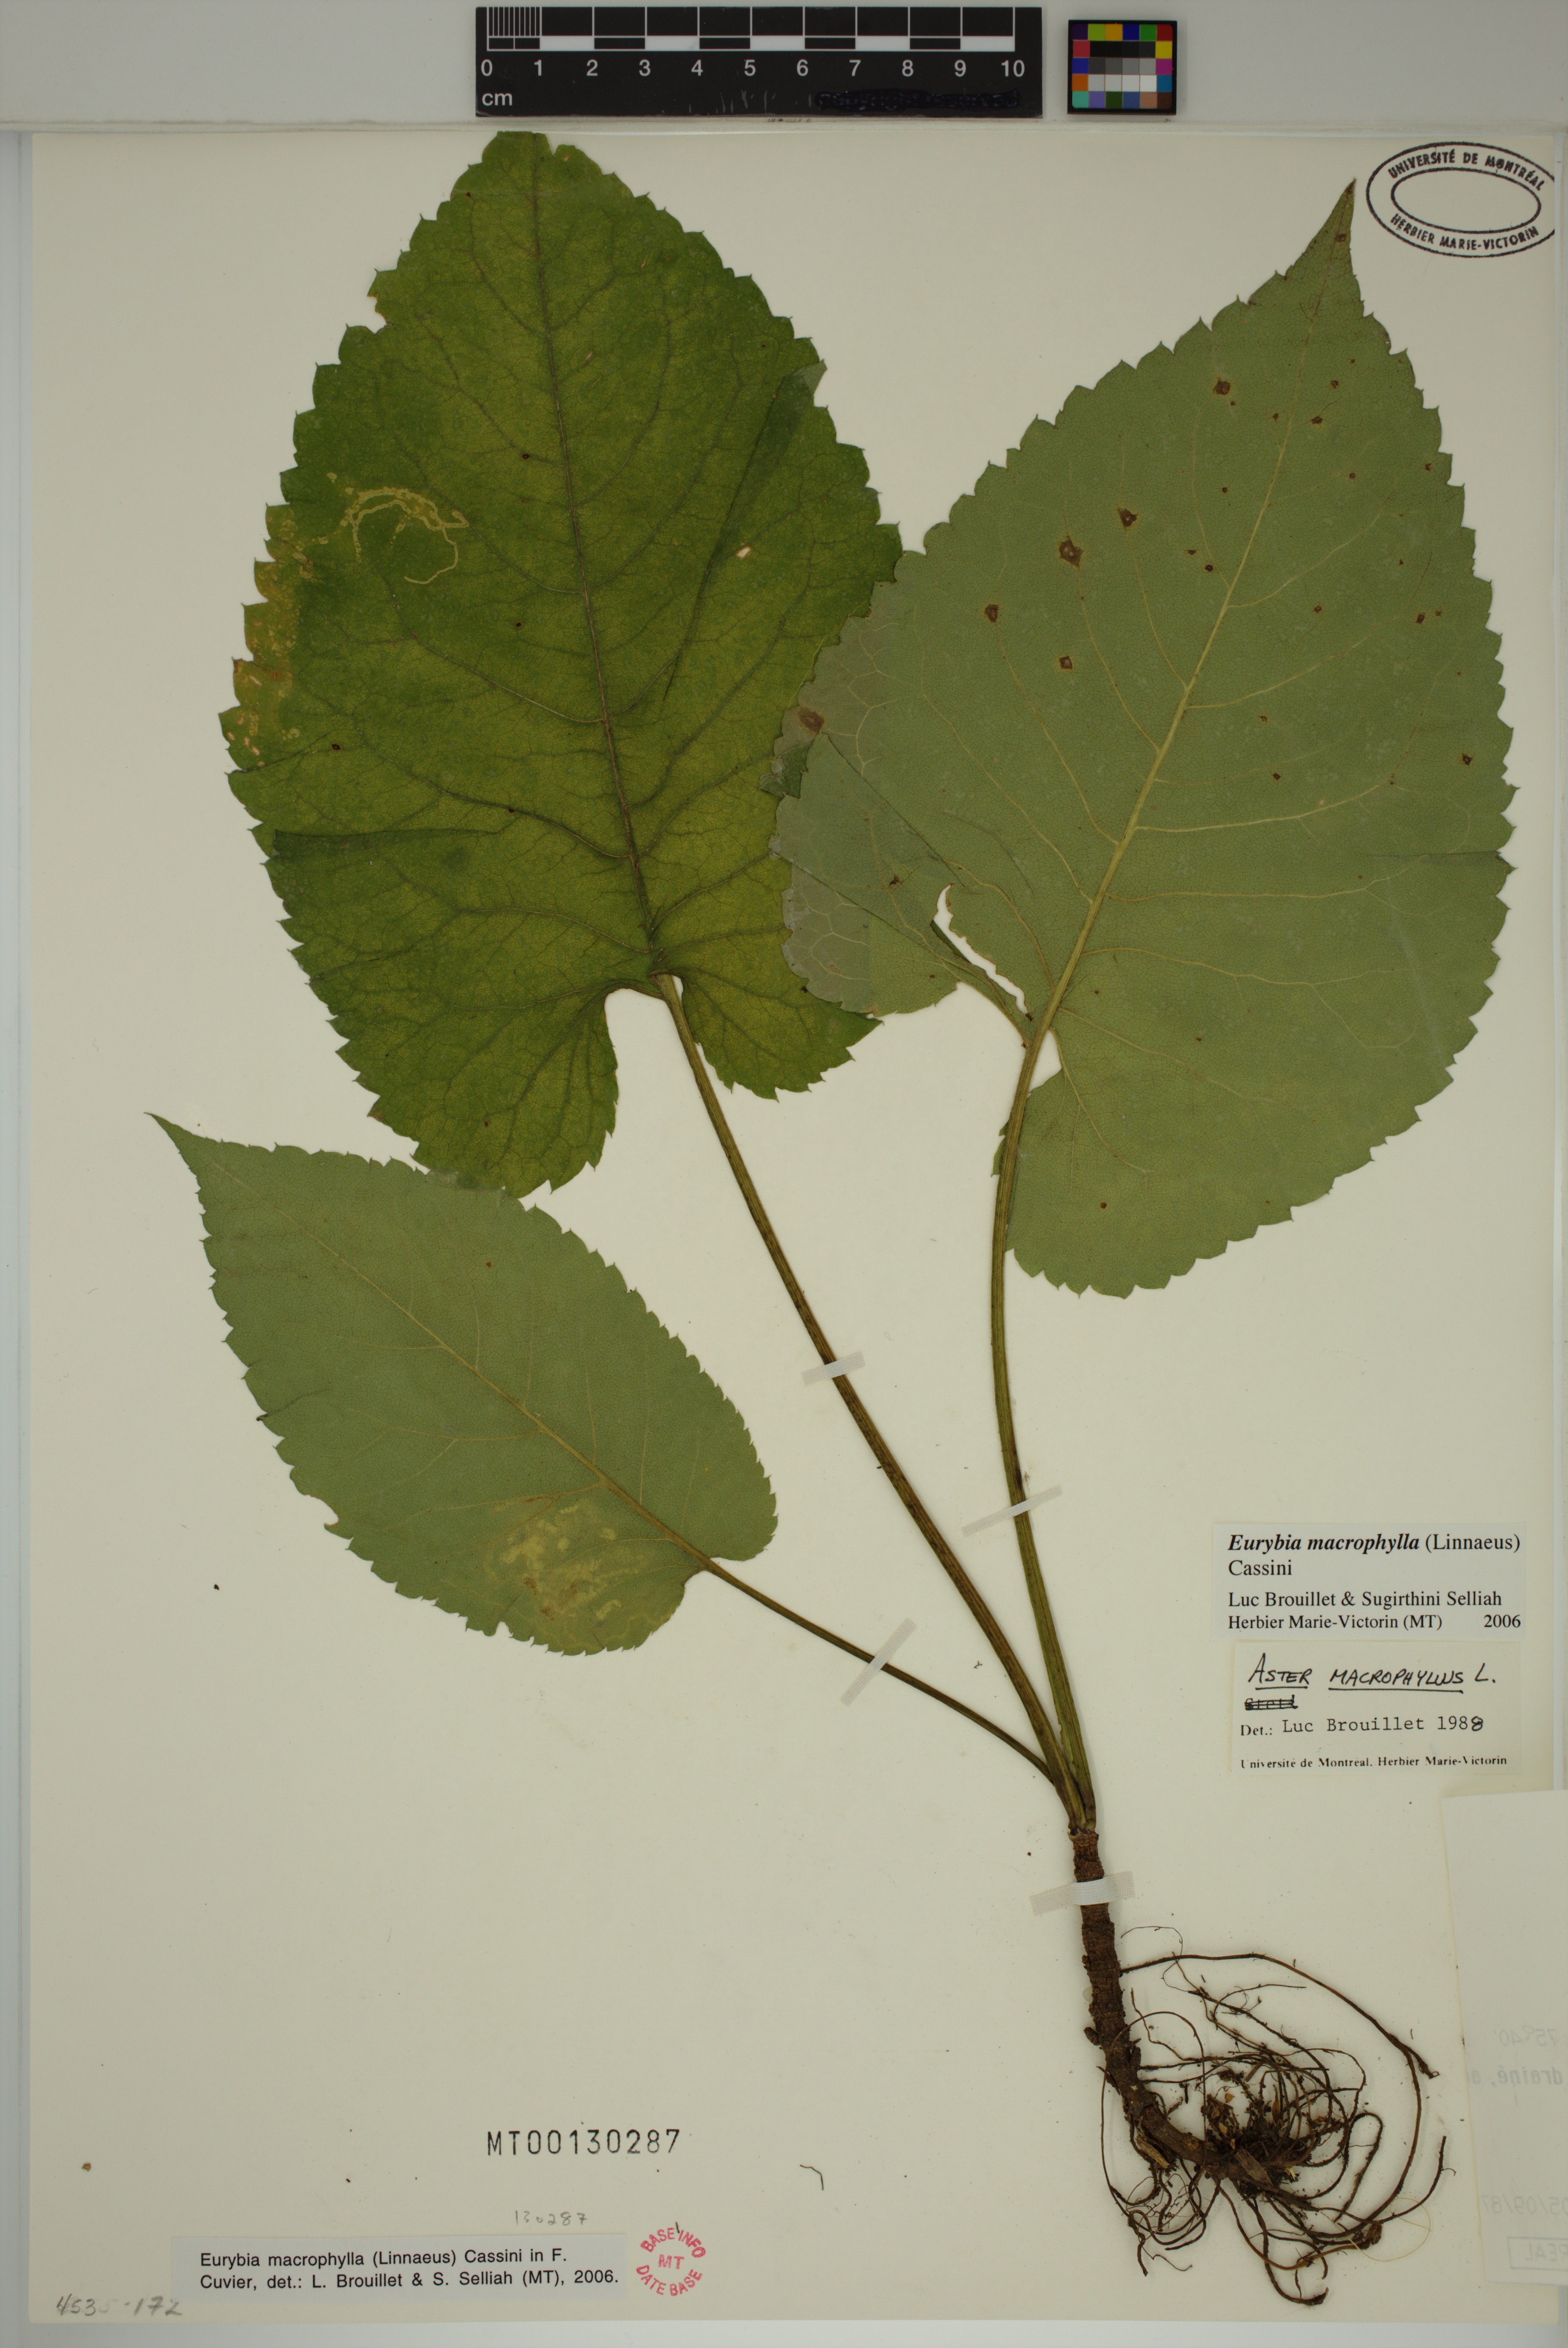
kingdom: Plantae
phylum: Tracheophyta
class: Magnoliopsida
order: Asterales
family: Asteraceae
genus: Eurybia
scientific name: Eurybia macrophylla
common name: Big-leaved aster
